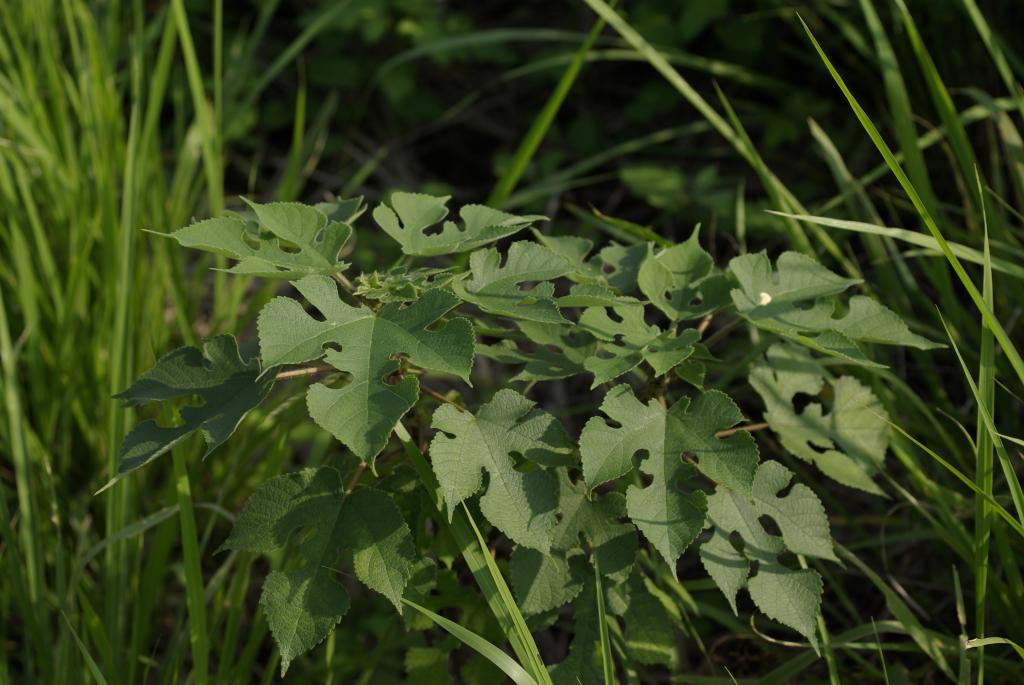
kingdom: Plantae
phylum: Tracheophyta
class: Magnoliopsida
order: Rosales
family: Moraceae
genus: Broussonetia
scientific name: Broussonetia papyrifera
